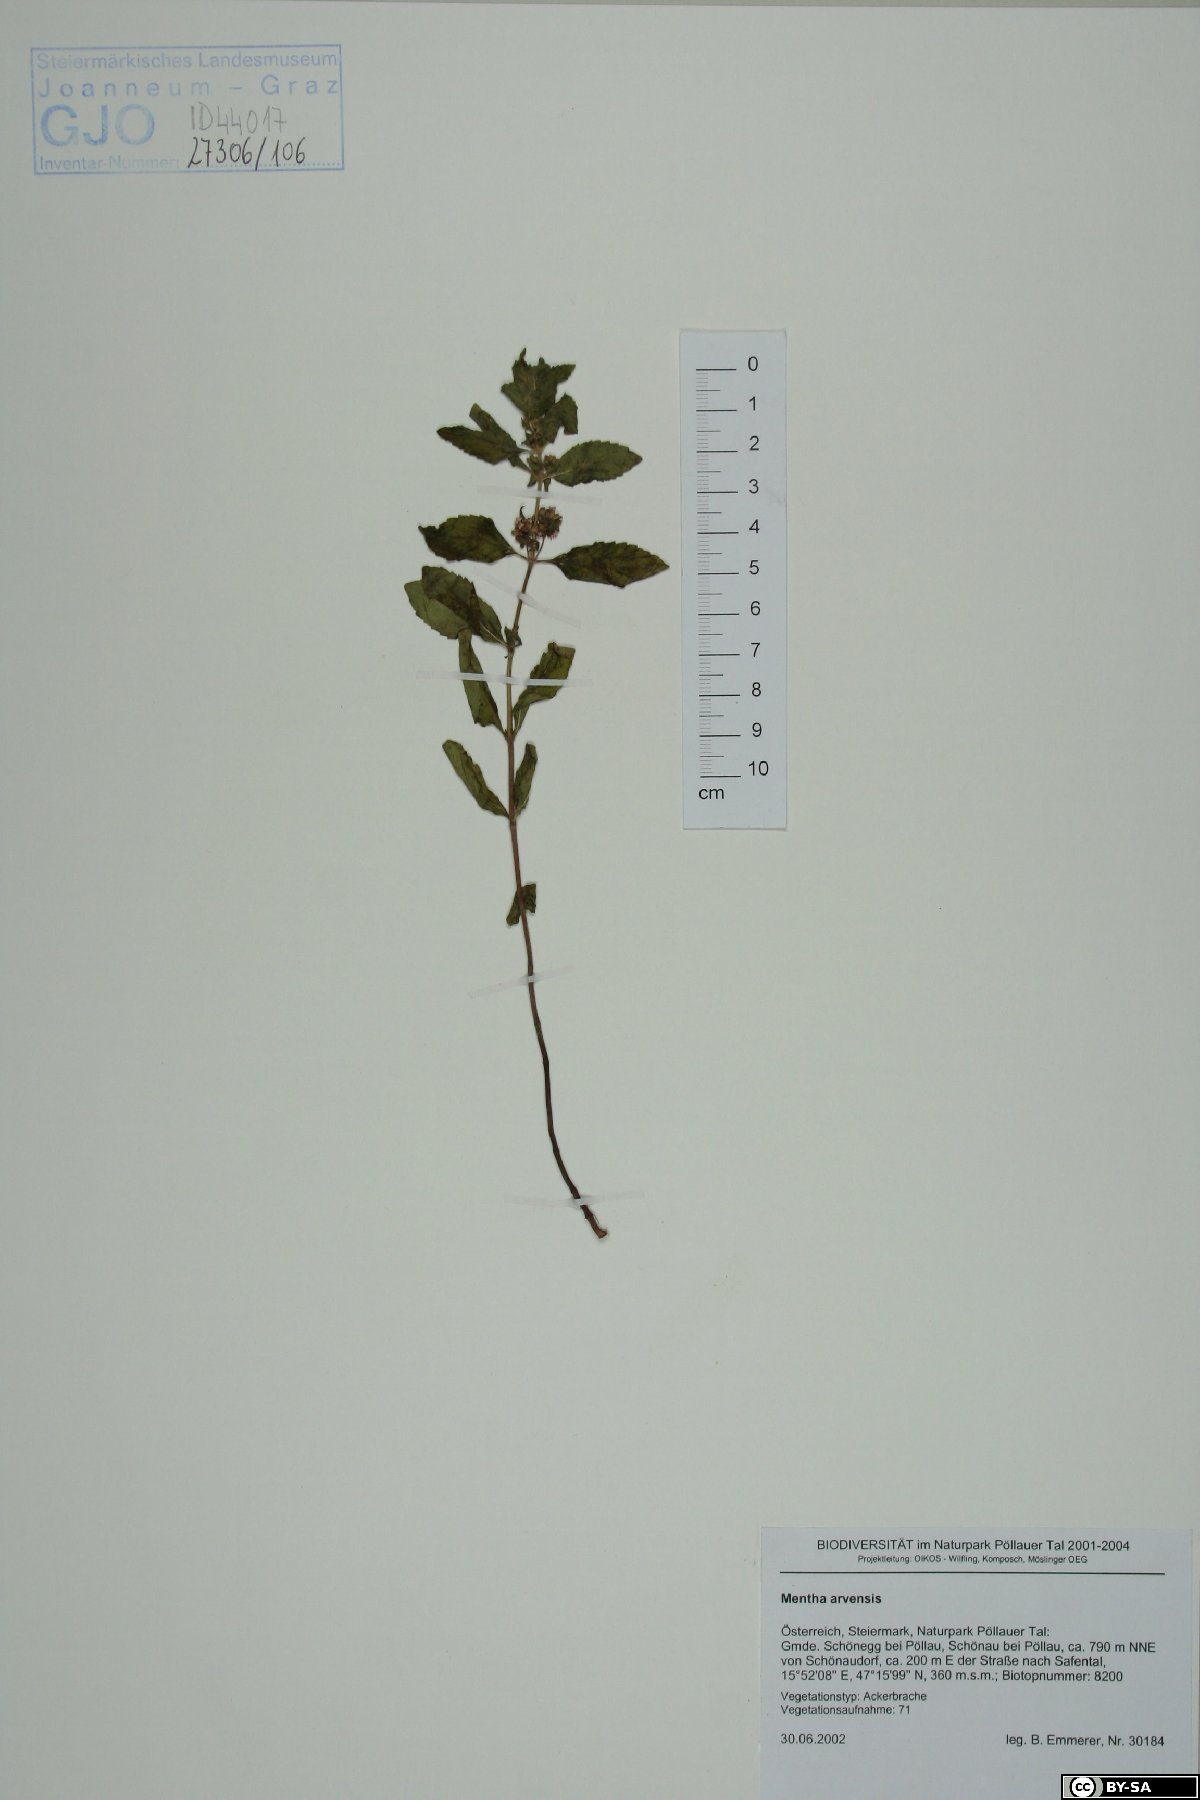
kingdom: Plantae
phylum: Tracheophyta
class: Magnoliopsida
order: Lamiales
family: Lamiaceae
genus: Mentha
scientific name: Mentha arvensis
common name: Corn mint
